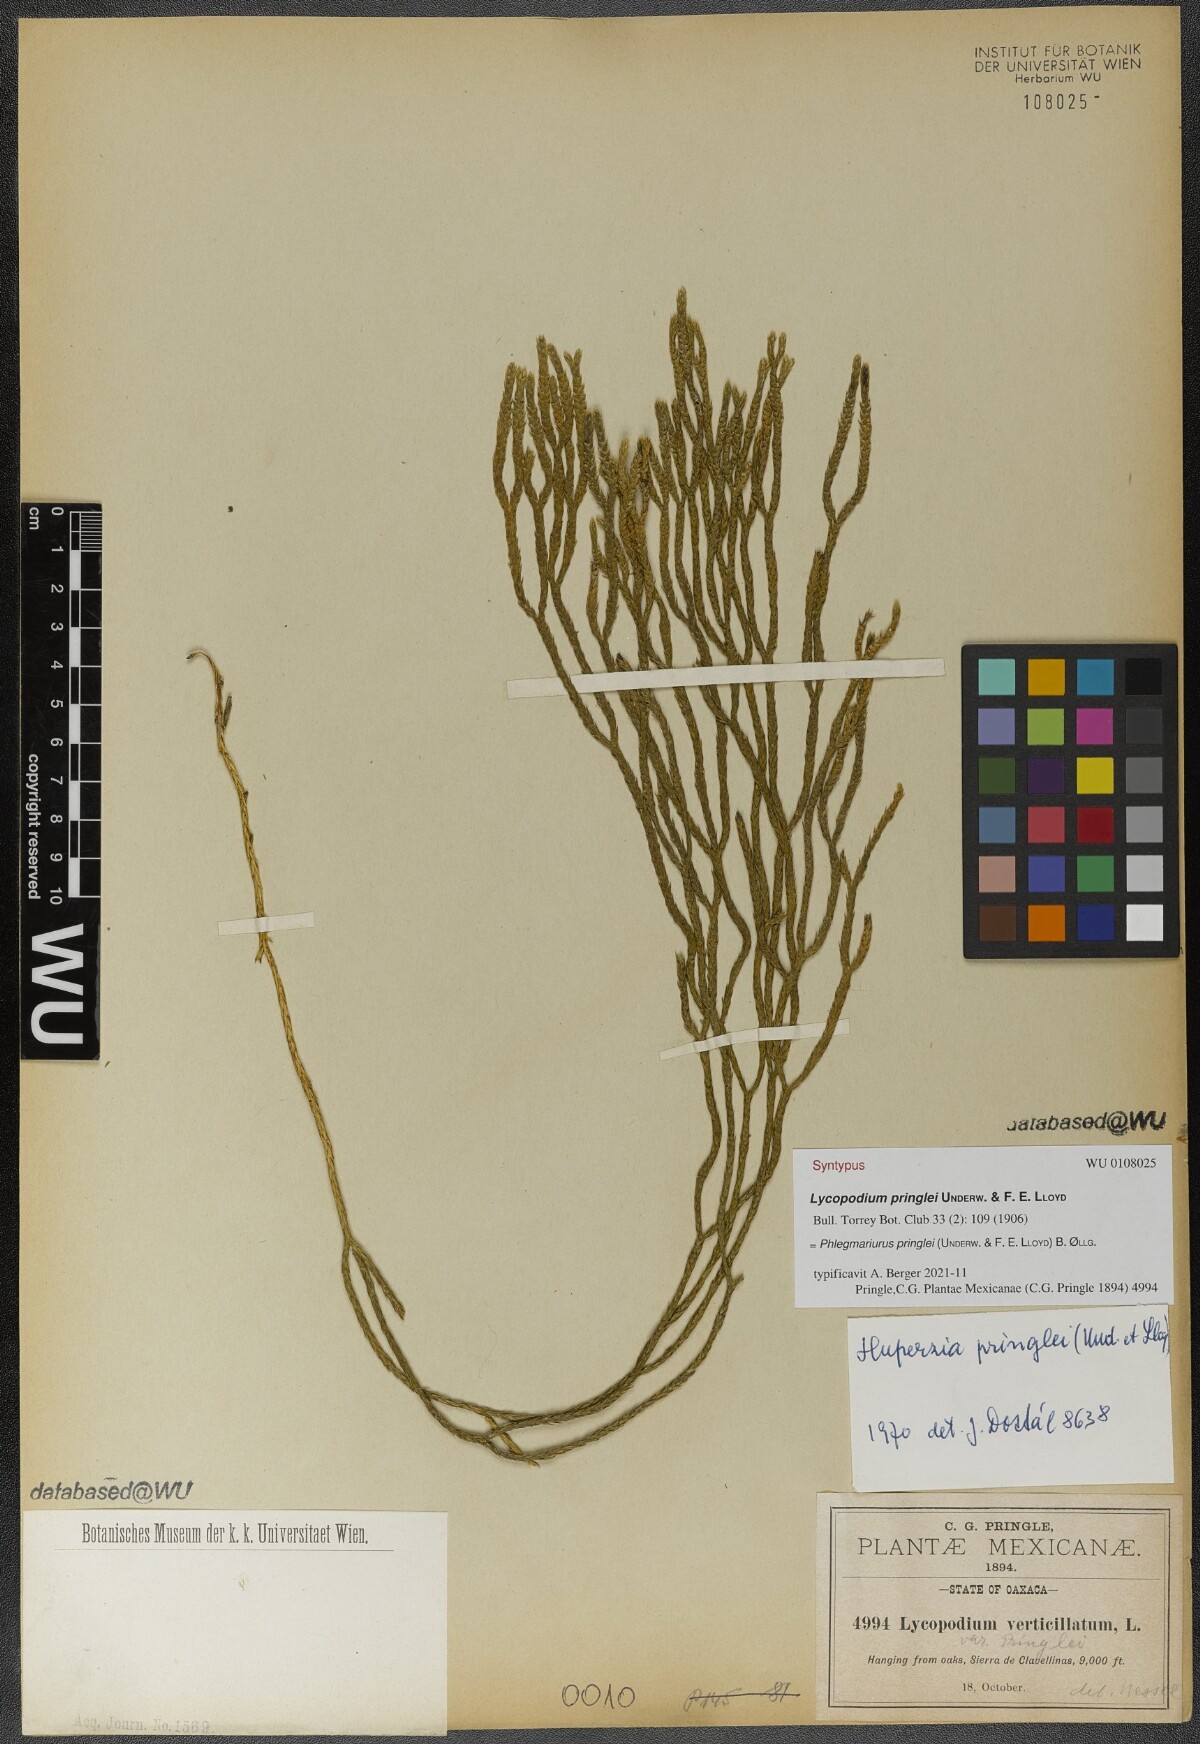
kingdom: Plantae
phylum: Tracheophyta
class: Lycopodiopsida
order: Lycopodiales
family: Lycopodiaceae
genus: Phlegmariurus
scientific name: Phlegmariurus pringlei
